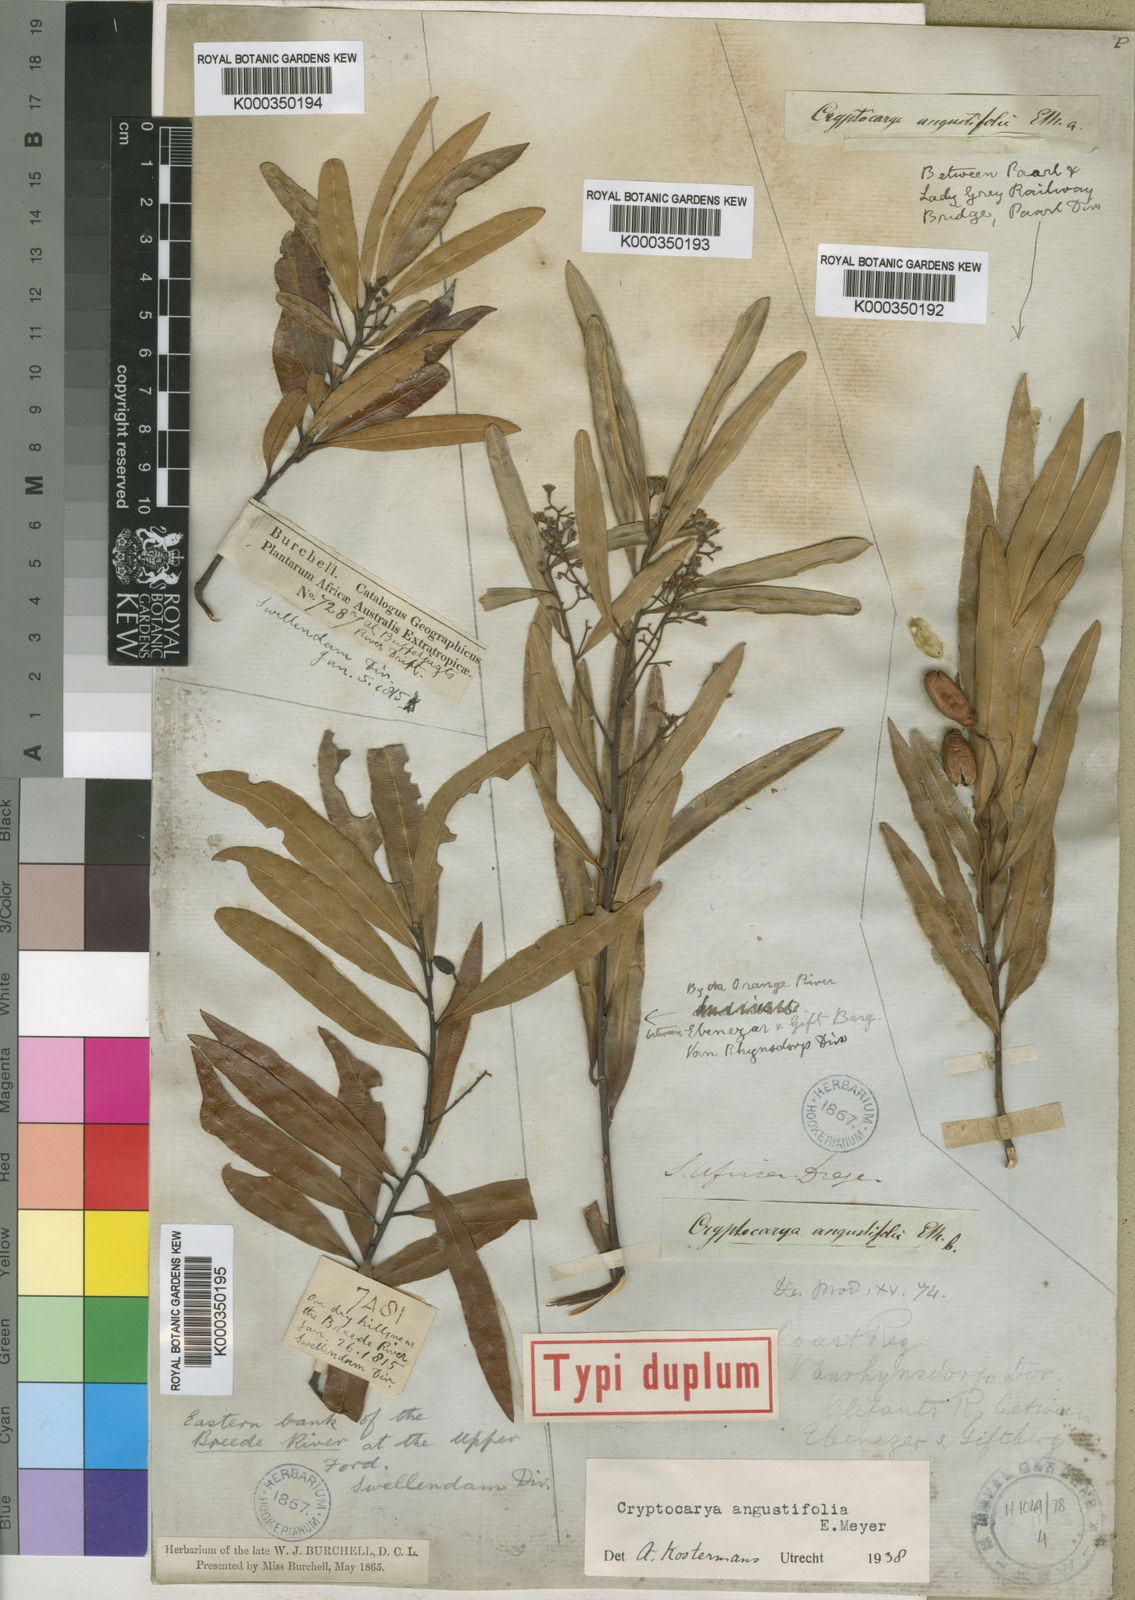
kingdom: Plantae
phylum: Tracheophyta
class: Magnoliopsida
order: Laurales
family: Lauraceae
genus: Cryptocarya
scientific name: Cryptocarya
